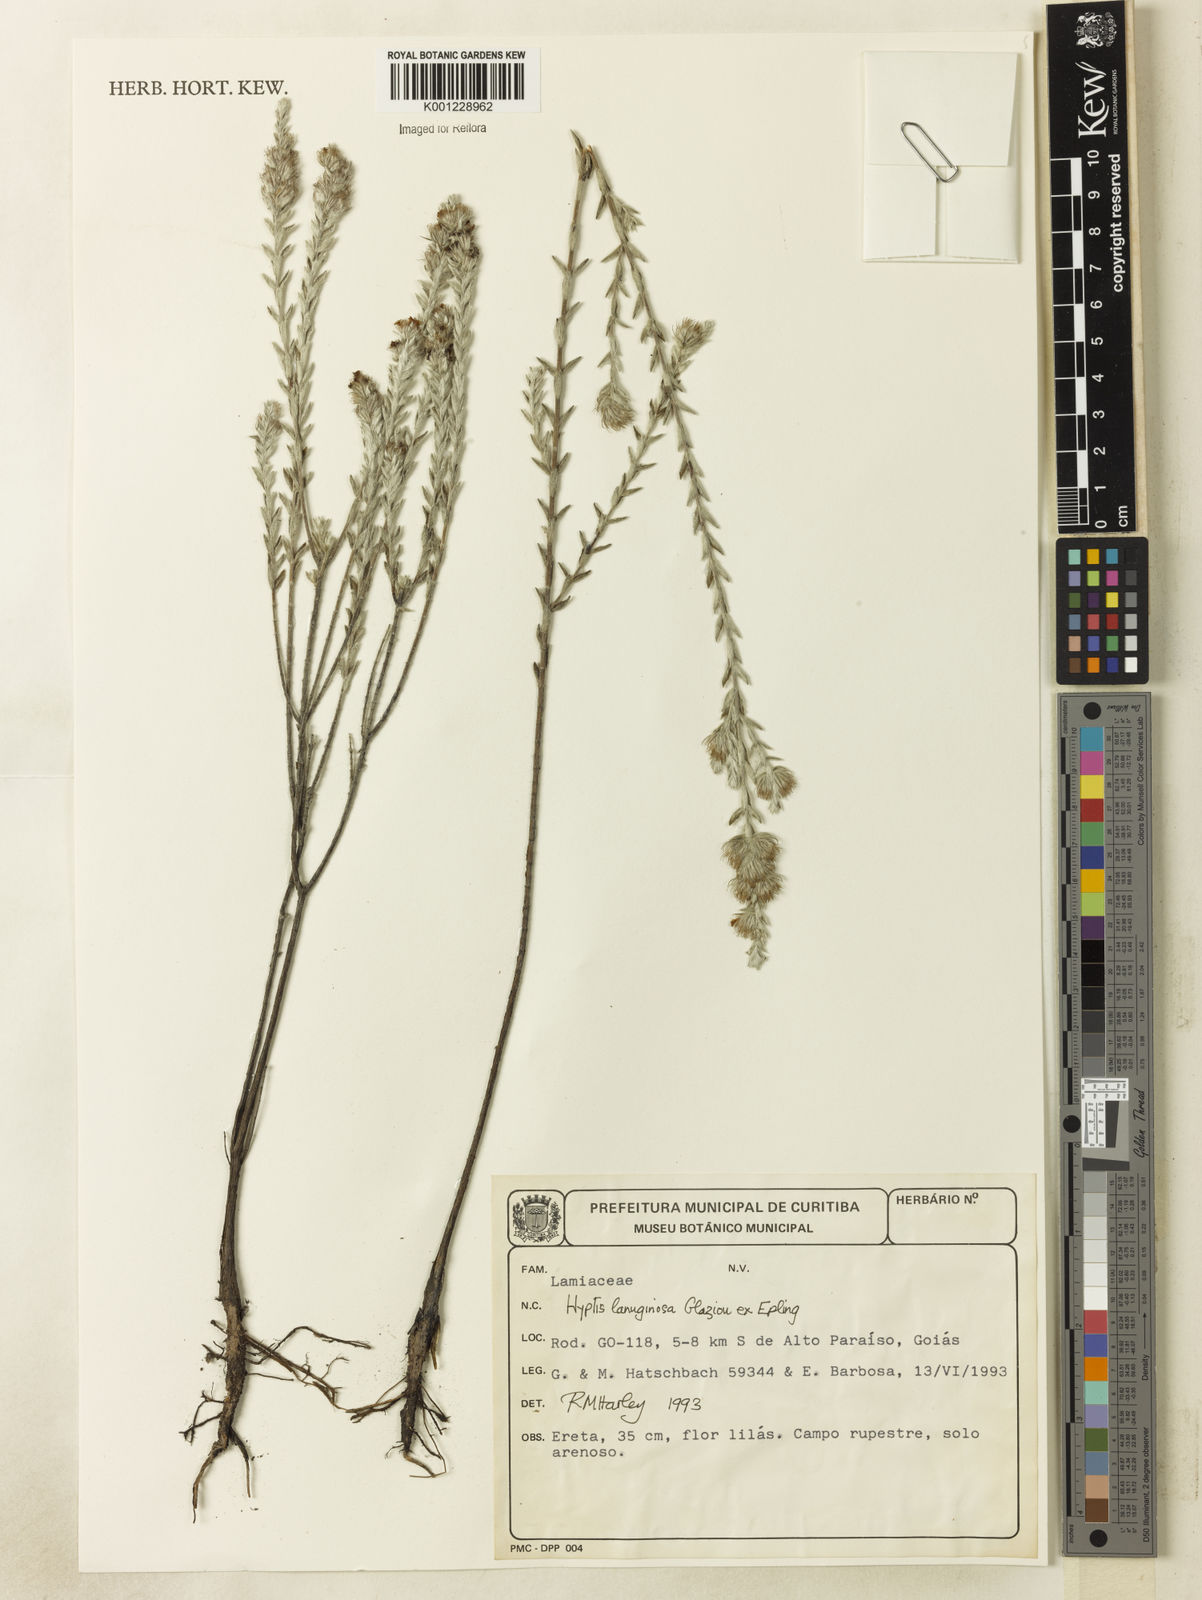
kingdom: Plantae
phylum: Tracheophyta
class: Magnoliopsida
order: Lamiales
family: Lamiaceae
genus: Hyptis
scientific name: Hyptis lanuginosa
